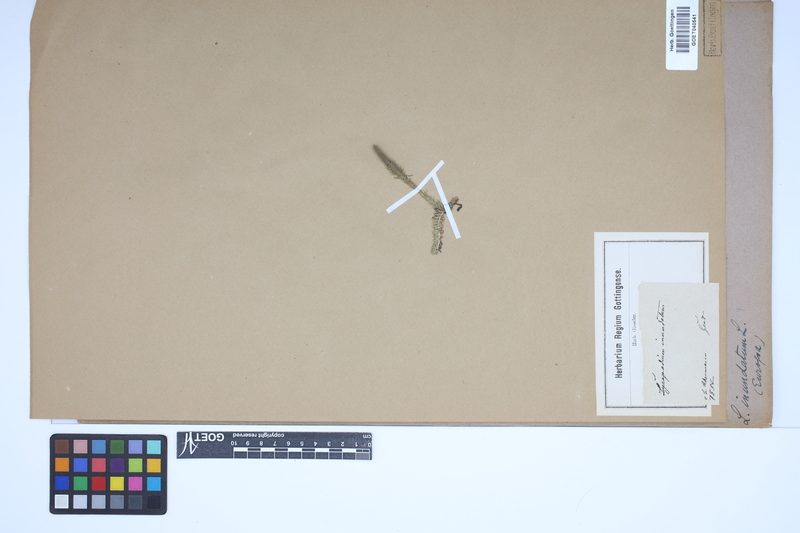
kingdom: Plantae
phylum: Tracheophyta
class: Lycopodiopsida
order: Lycopodiales
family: Lycopodiaceae
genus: Lycopodiella
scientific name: Lycopodiella inundata
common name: Marsh clubmoss
